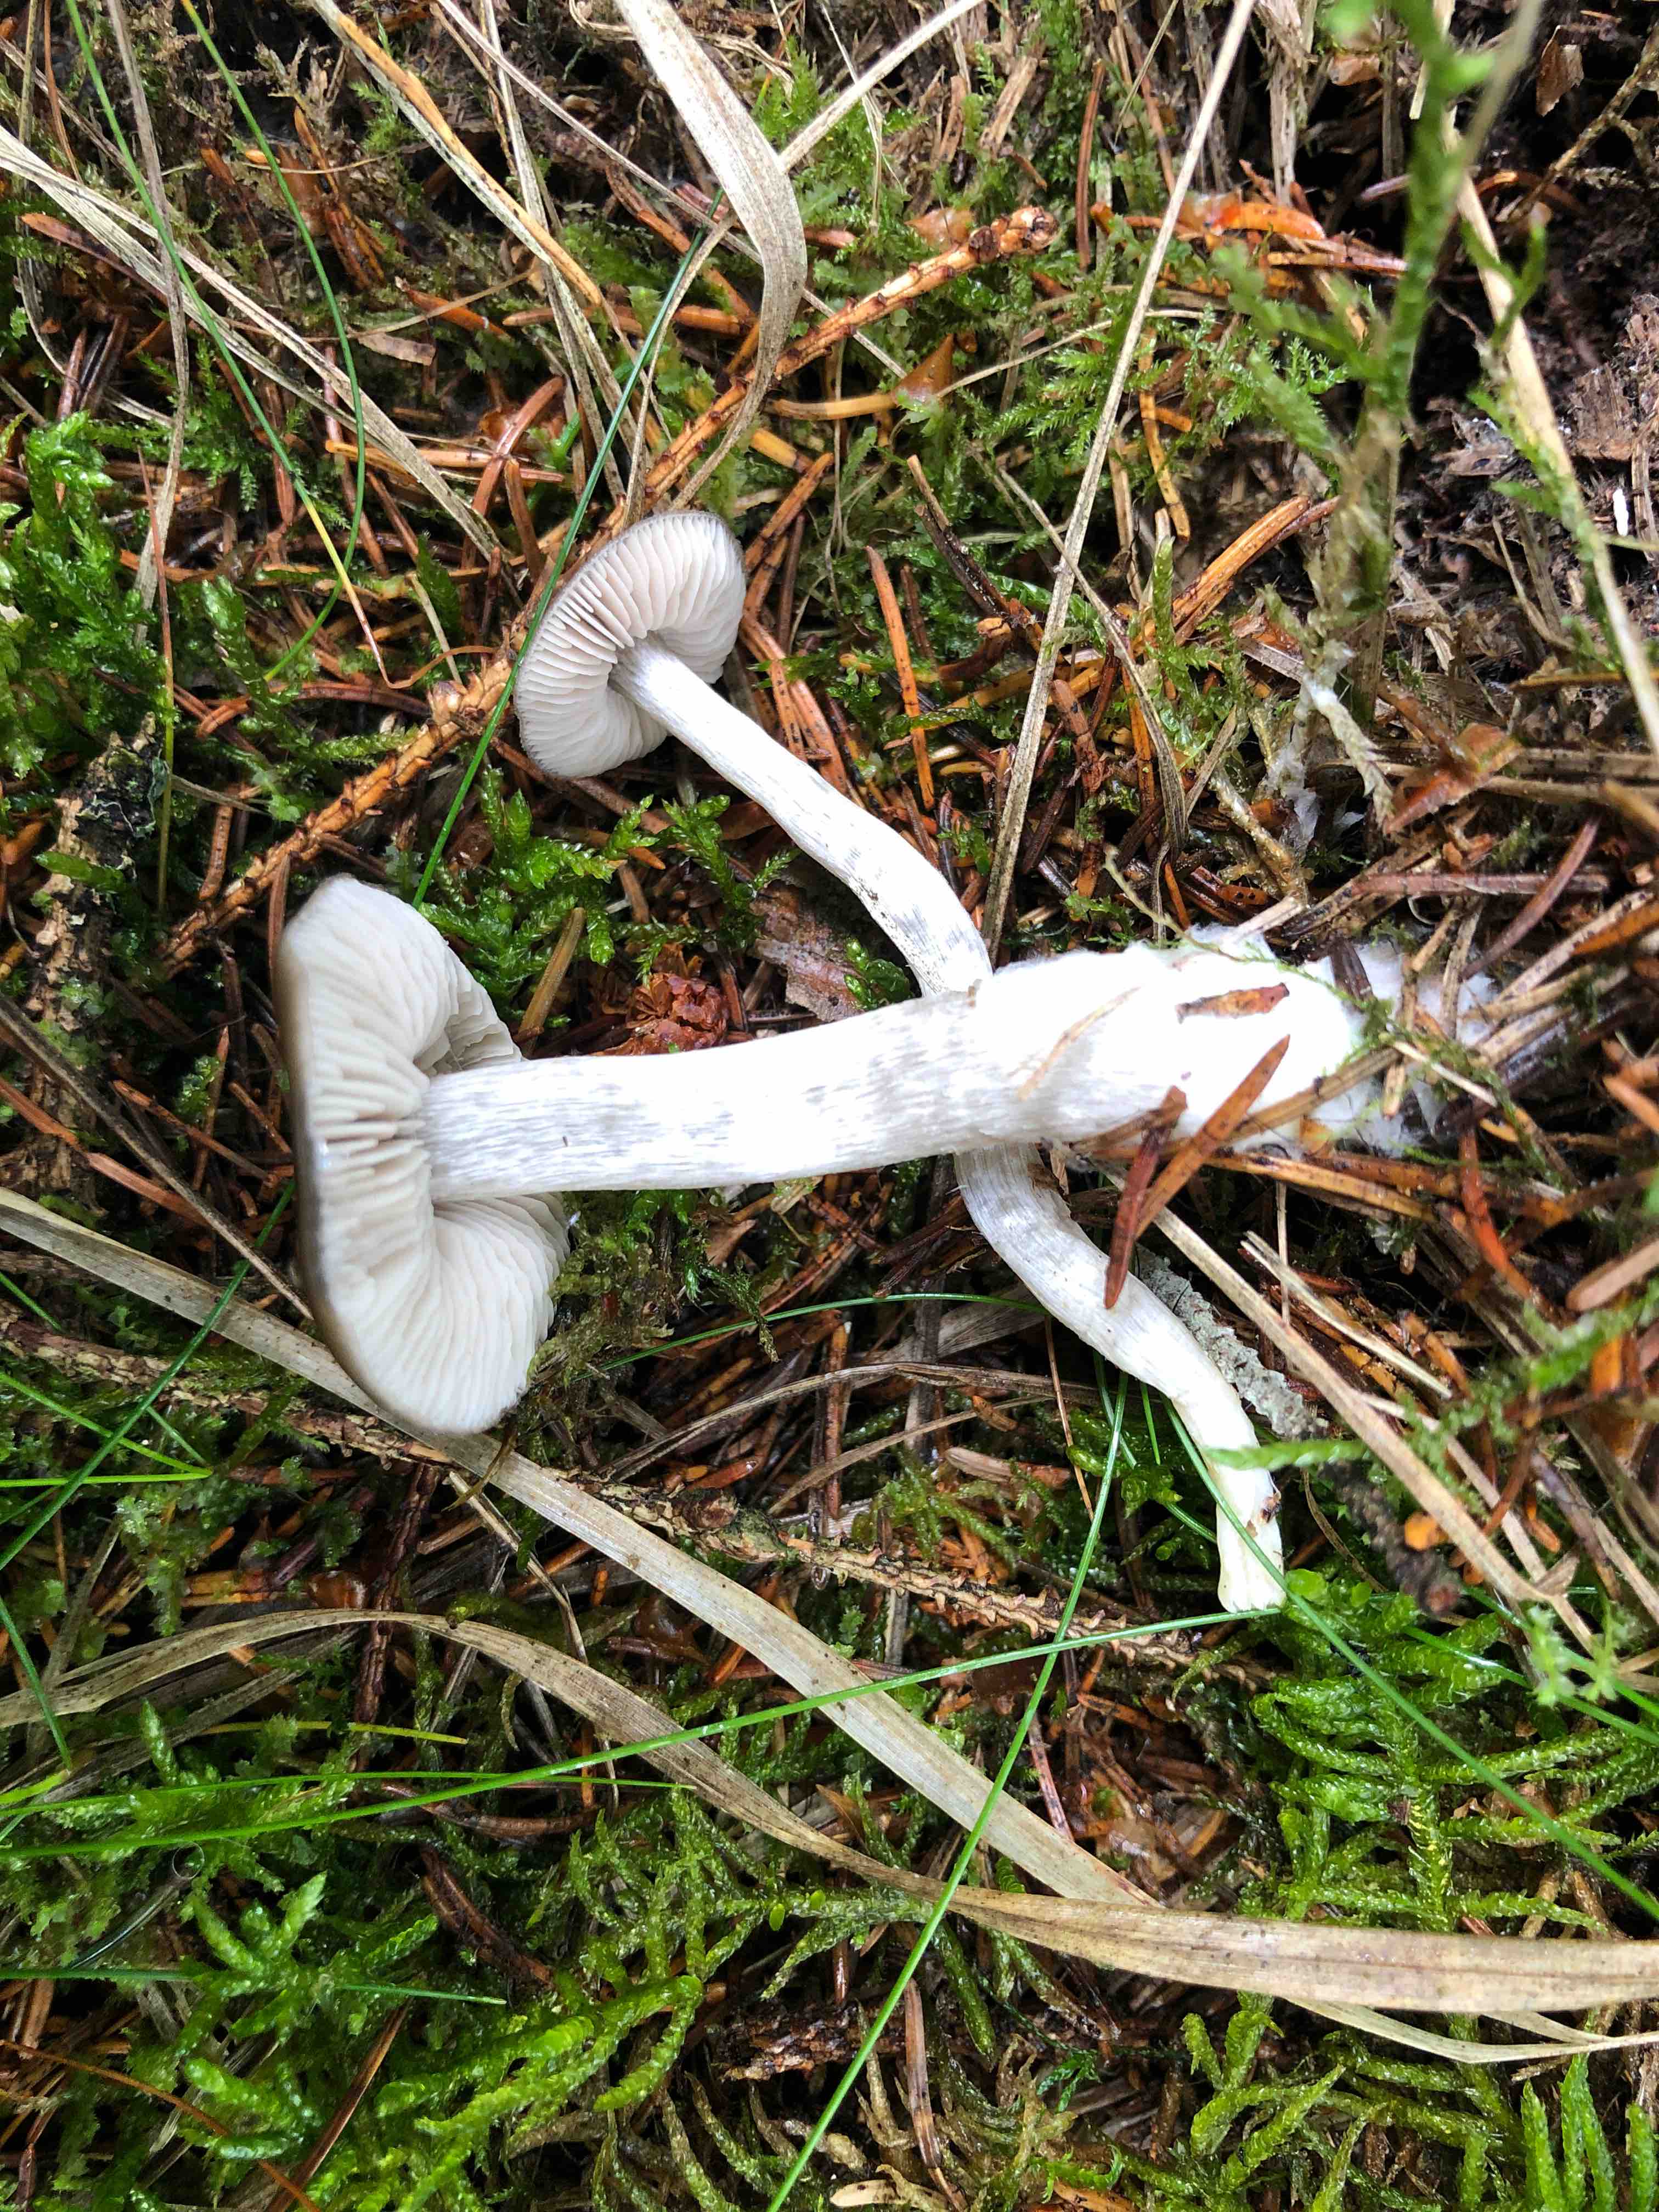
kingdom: Fungi
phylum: Basidiomycota
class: Agaricomycetes
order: Agaricales
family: Entolomataceae
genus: Entocybe
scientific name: Entocybe turbida
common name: plantage-rødblad
